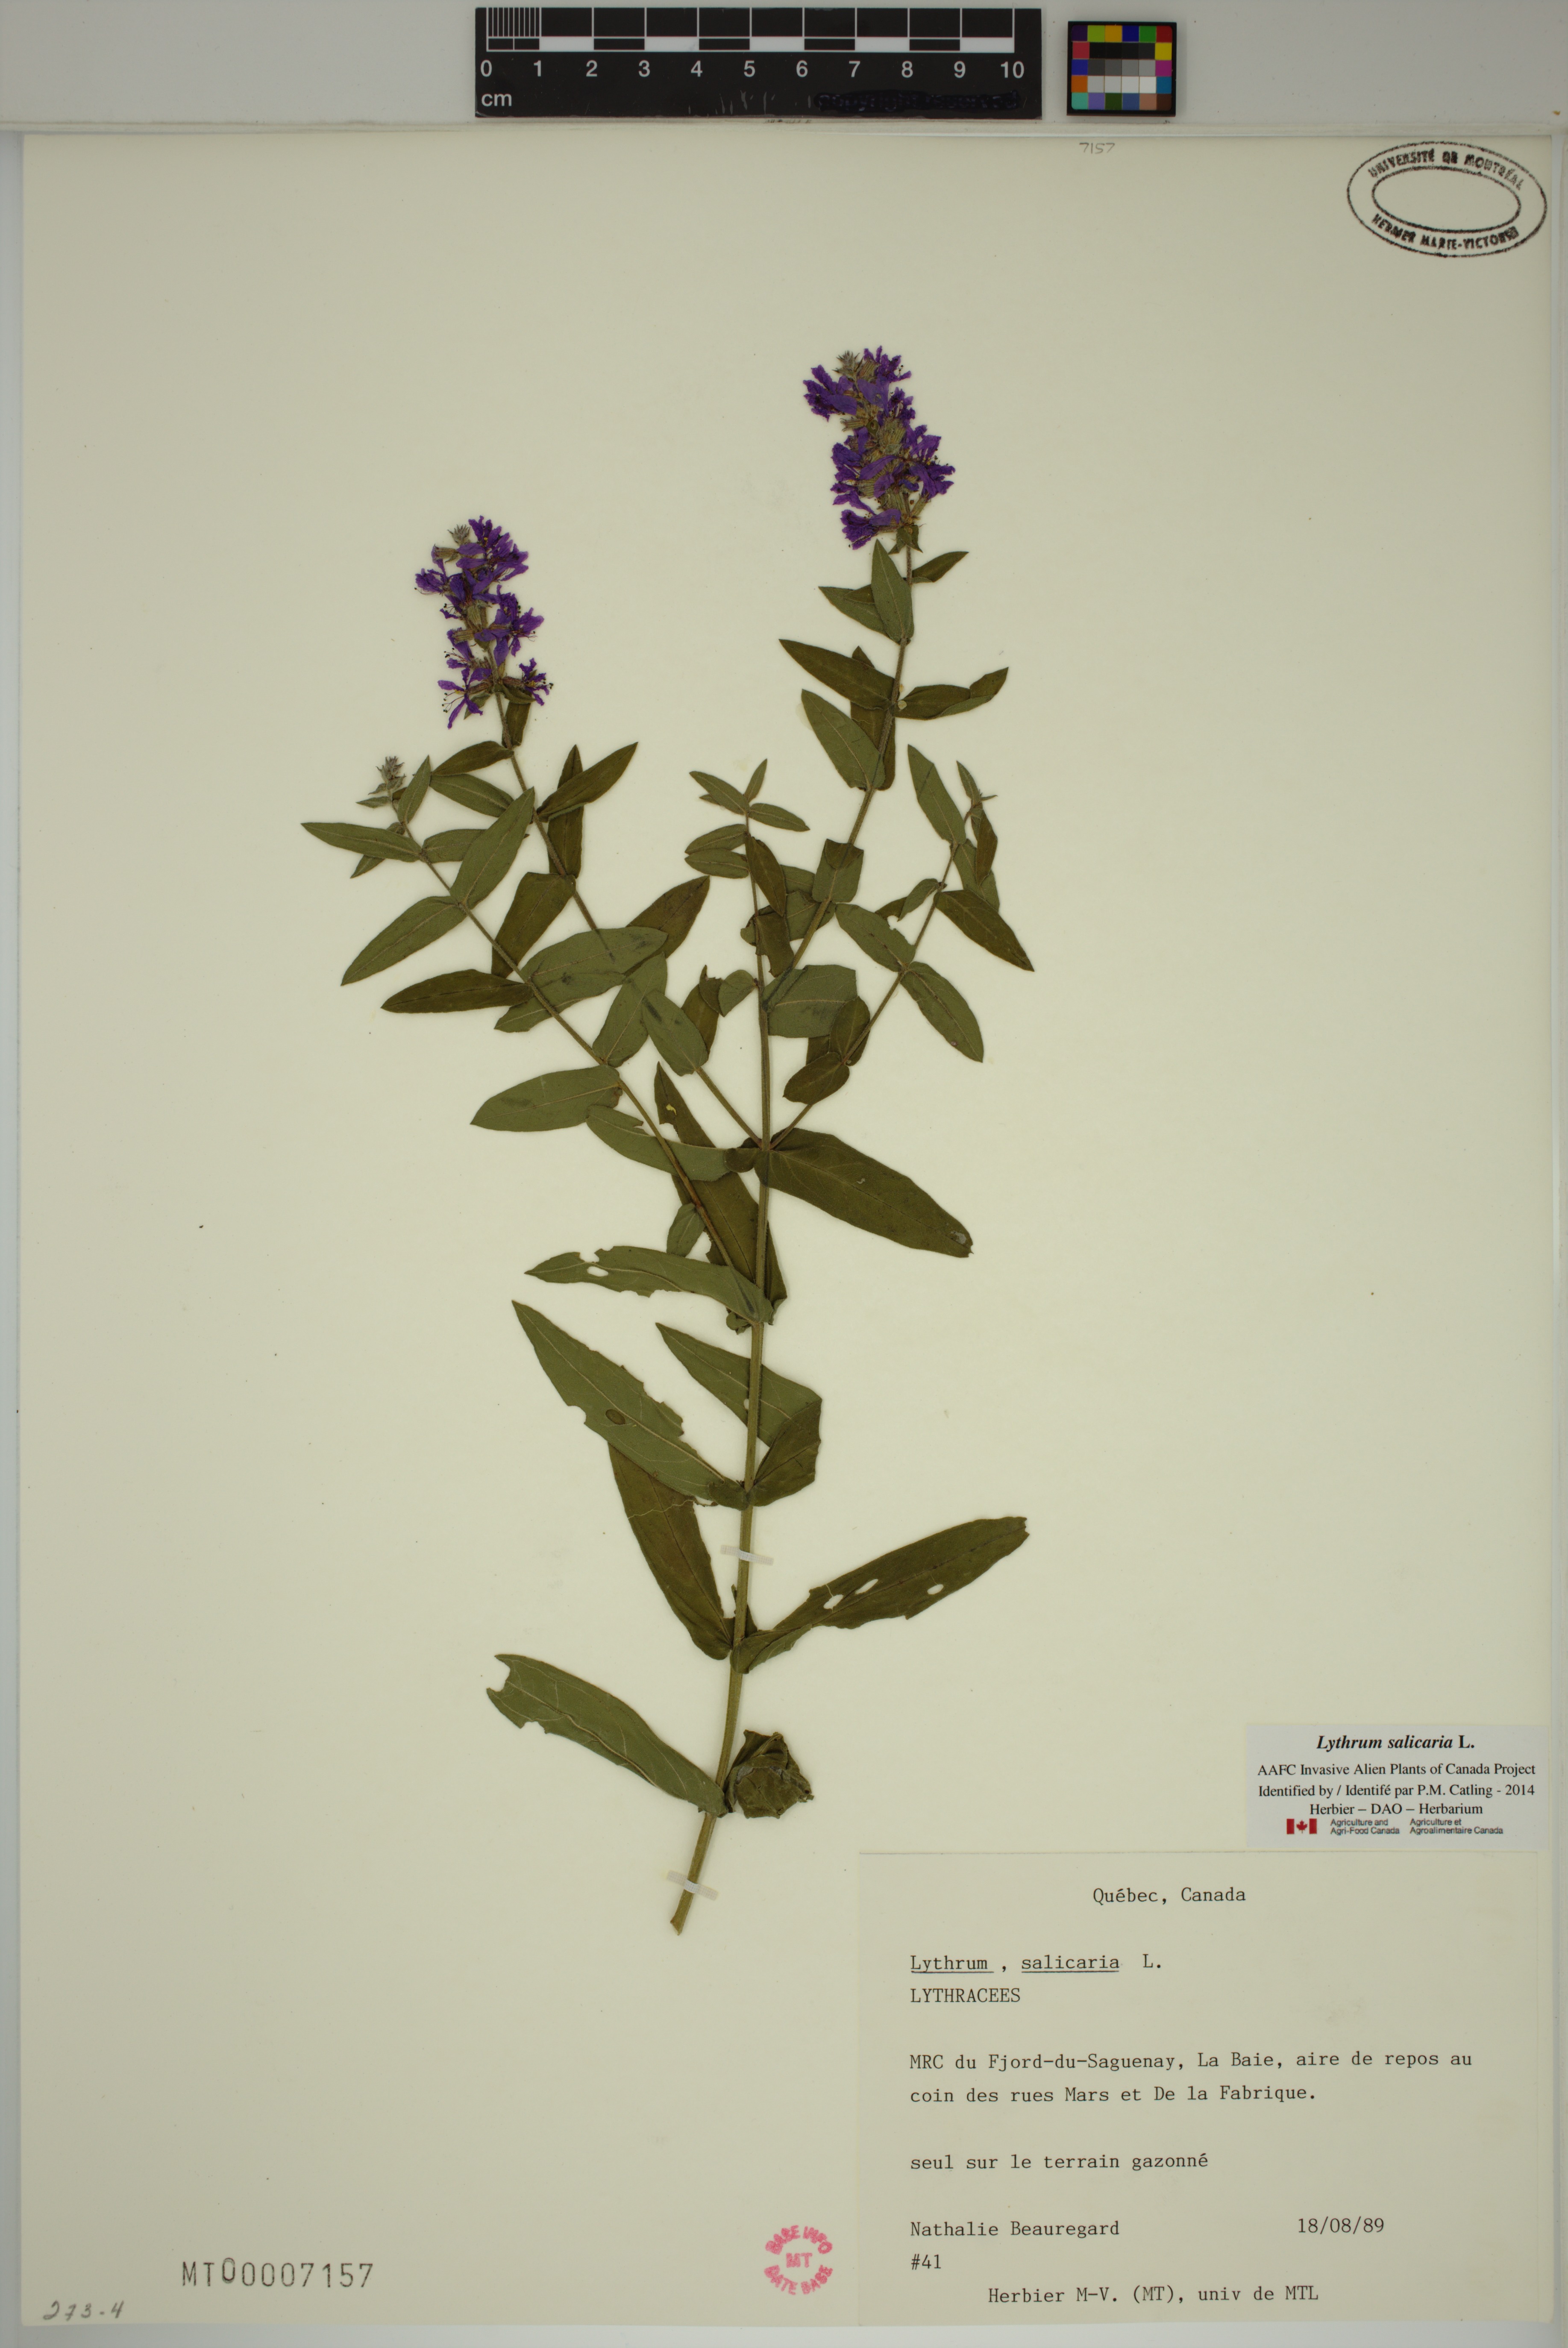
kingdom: Plantae
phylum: Tracheophyta
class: Magnoliopsida
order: Myrtales
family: Lythraceae
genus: Lythrum
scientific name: Lythrum salicaria
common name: Purple loosestrife
